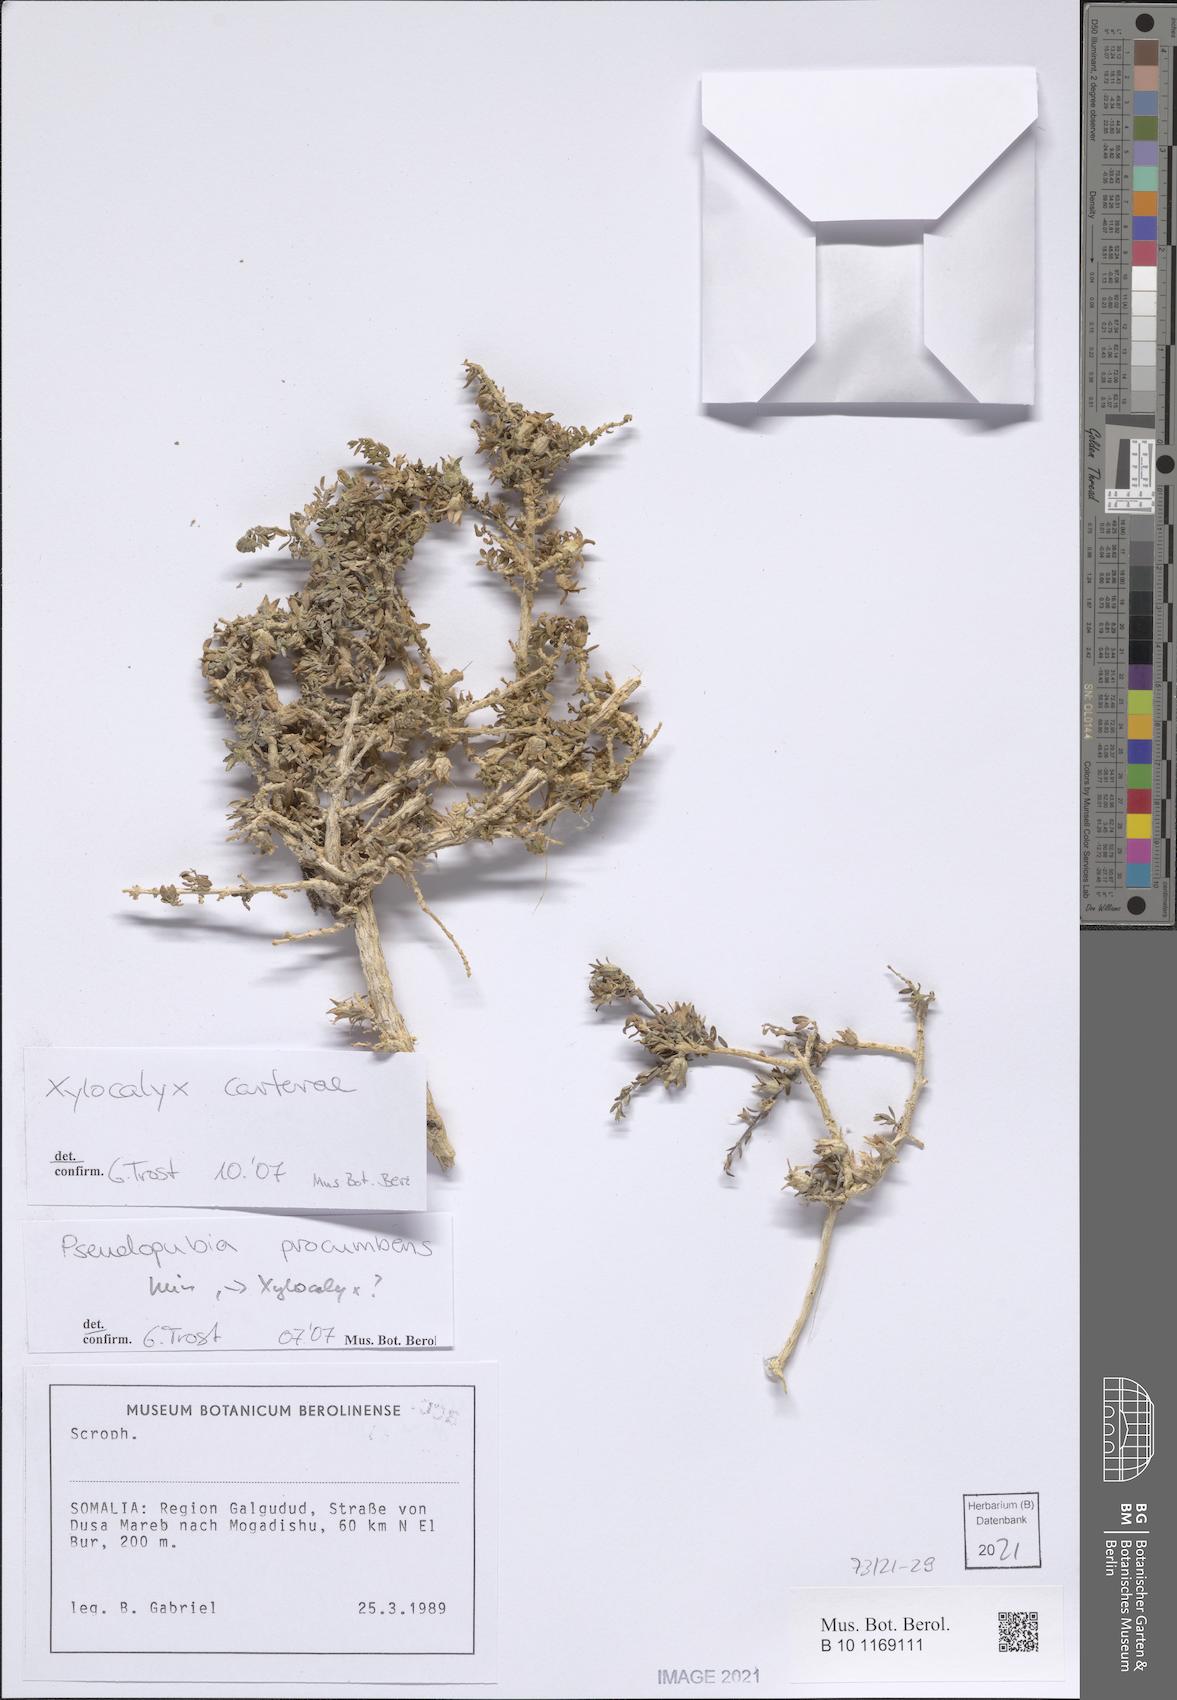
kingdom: Plantae
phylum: Tracheophyta
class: Magnoliopsida
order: Lamiales
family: Orobanchaceae
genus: Xylocalyx
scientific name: Xylocalyx carterae
